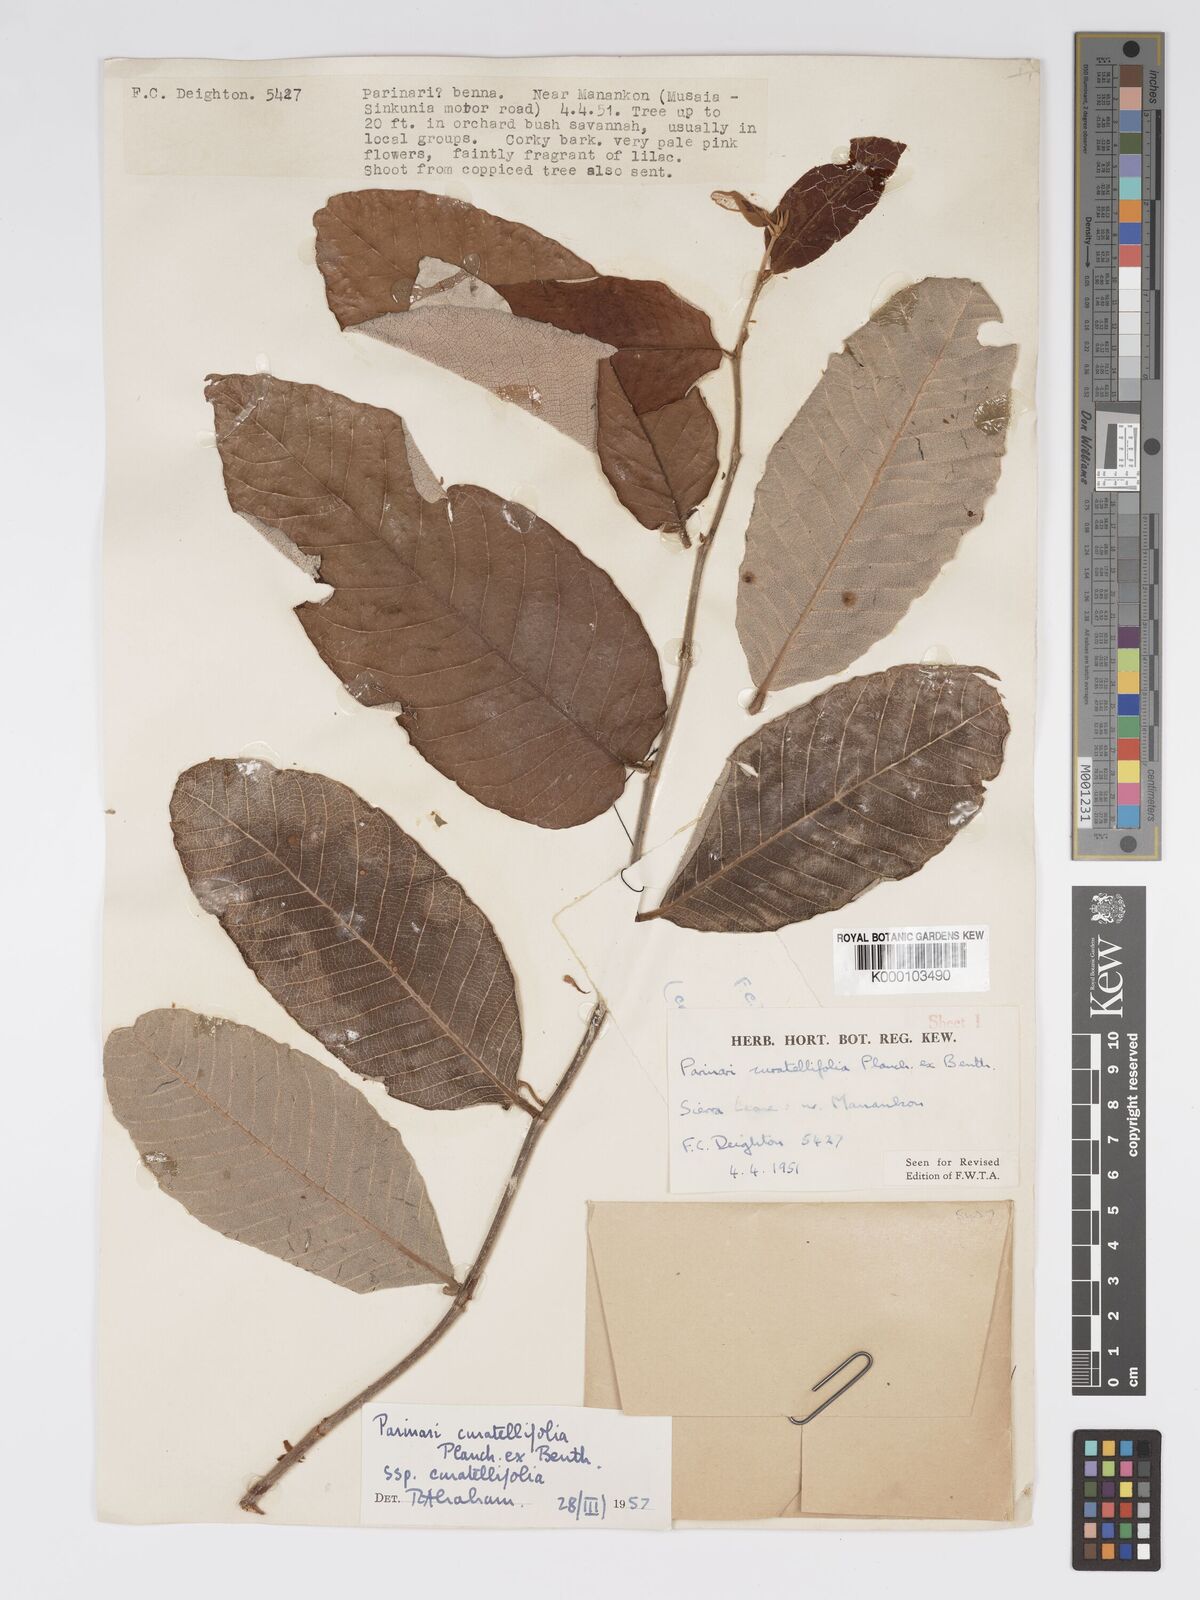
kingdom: Plantae
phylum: Tracheophyta
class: Magnoliopsida
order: Malpighiales
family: Chrysobalanaceae
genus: Parinari
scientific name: Parinari curatellifolia
